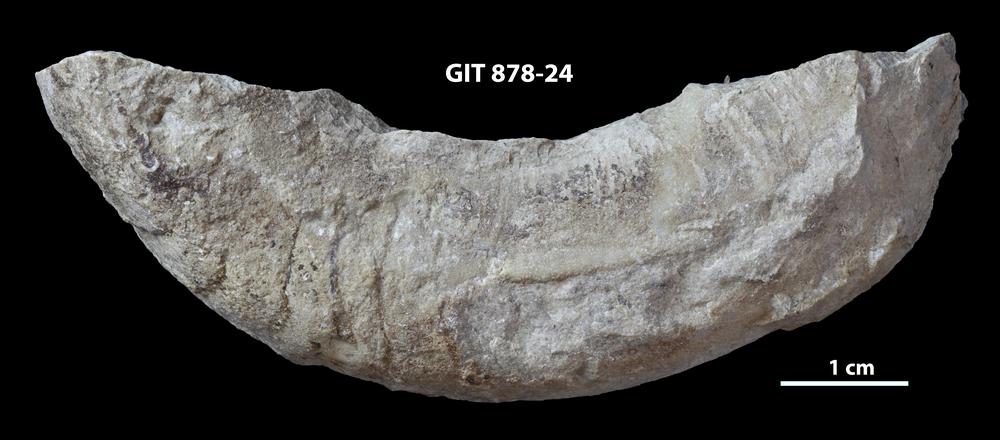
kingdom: Animalia
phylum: Mollusca
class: Cephalopoda
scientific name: Cephalopoda
